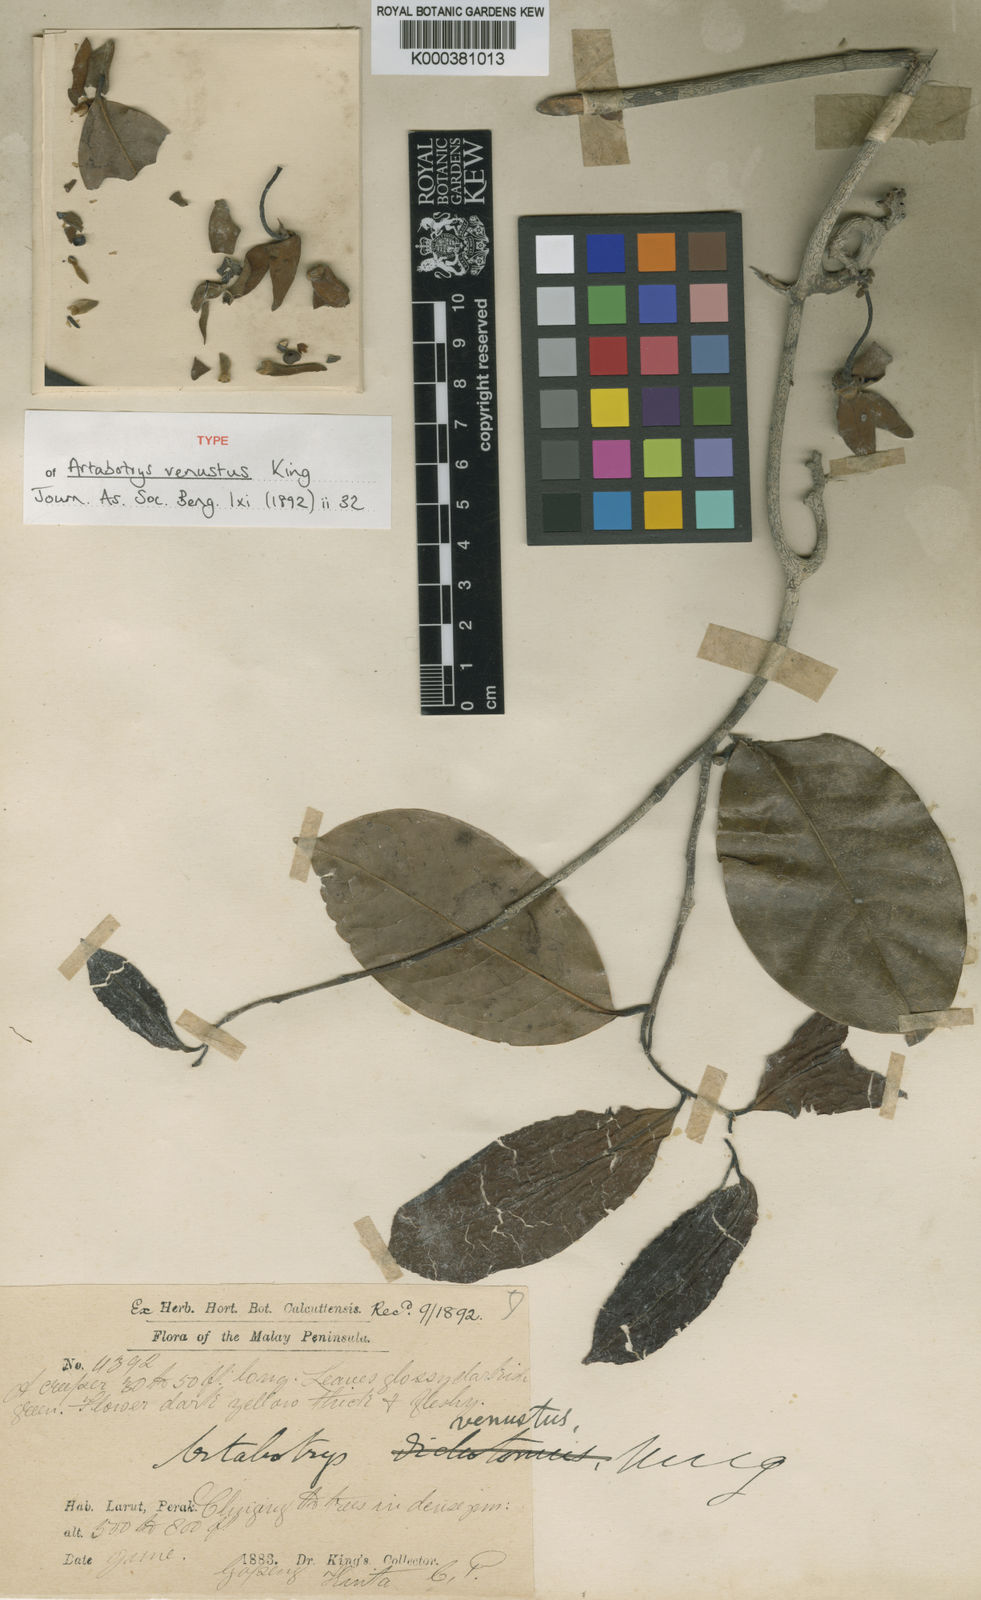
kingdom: Plantae
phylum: Tracheophyta
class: Magnoliopsida
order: Magnoliales
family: Annonaceae
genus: Artabotrys
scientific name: Artabotrys venustus
